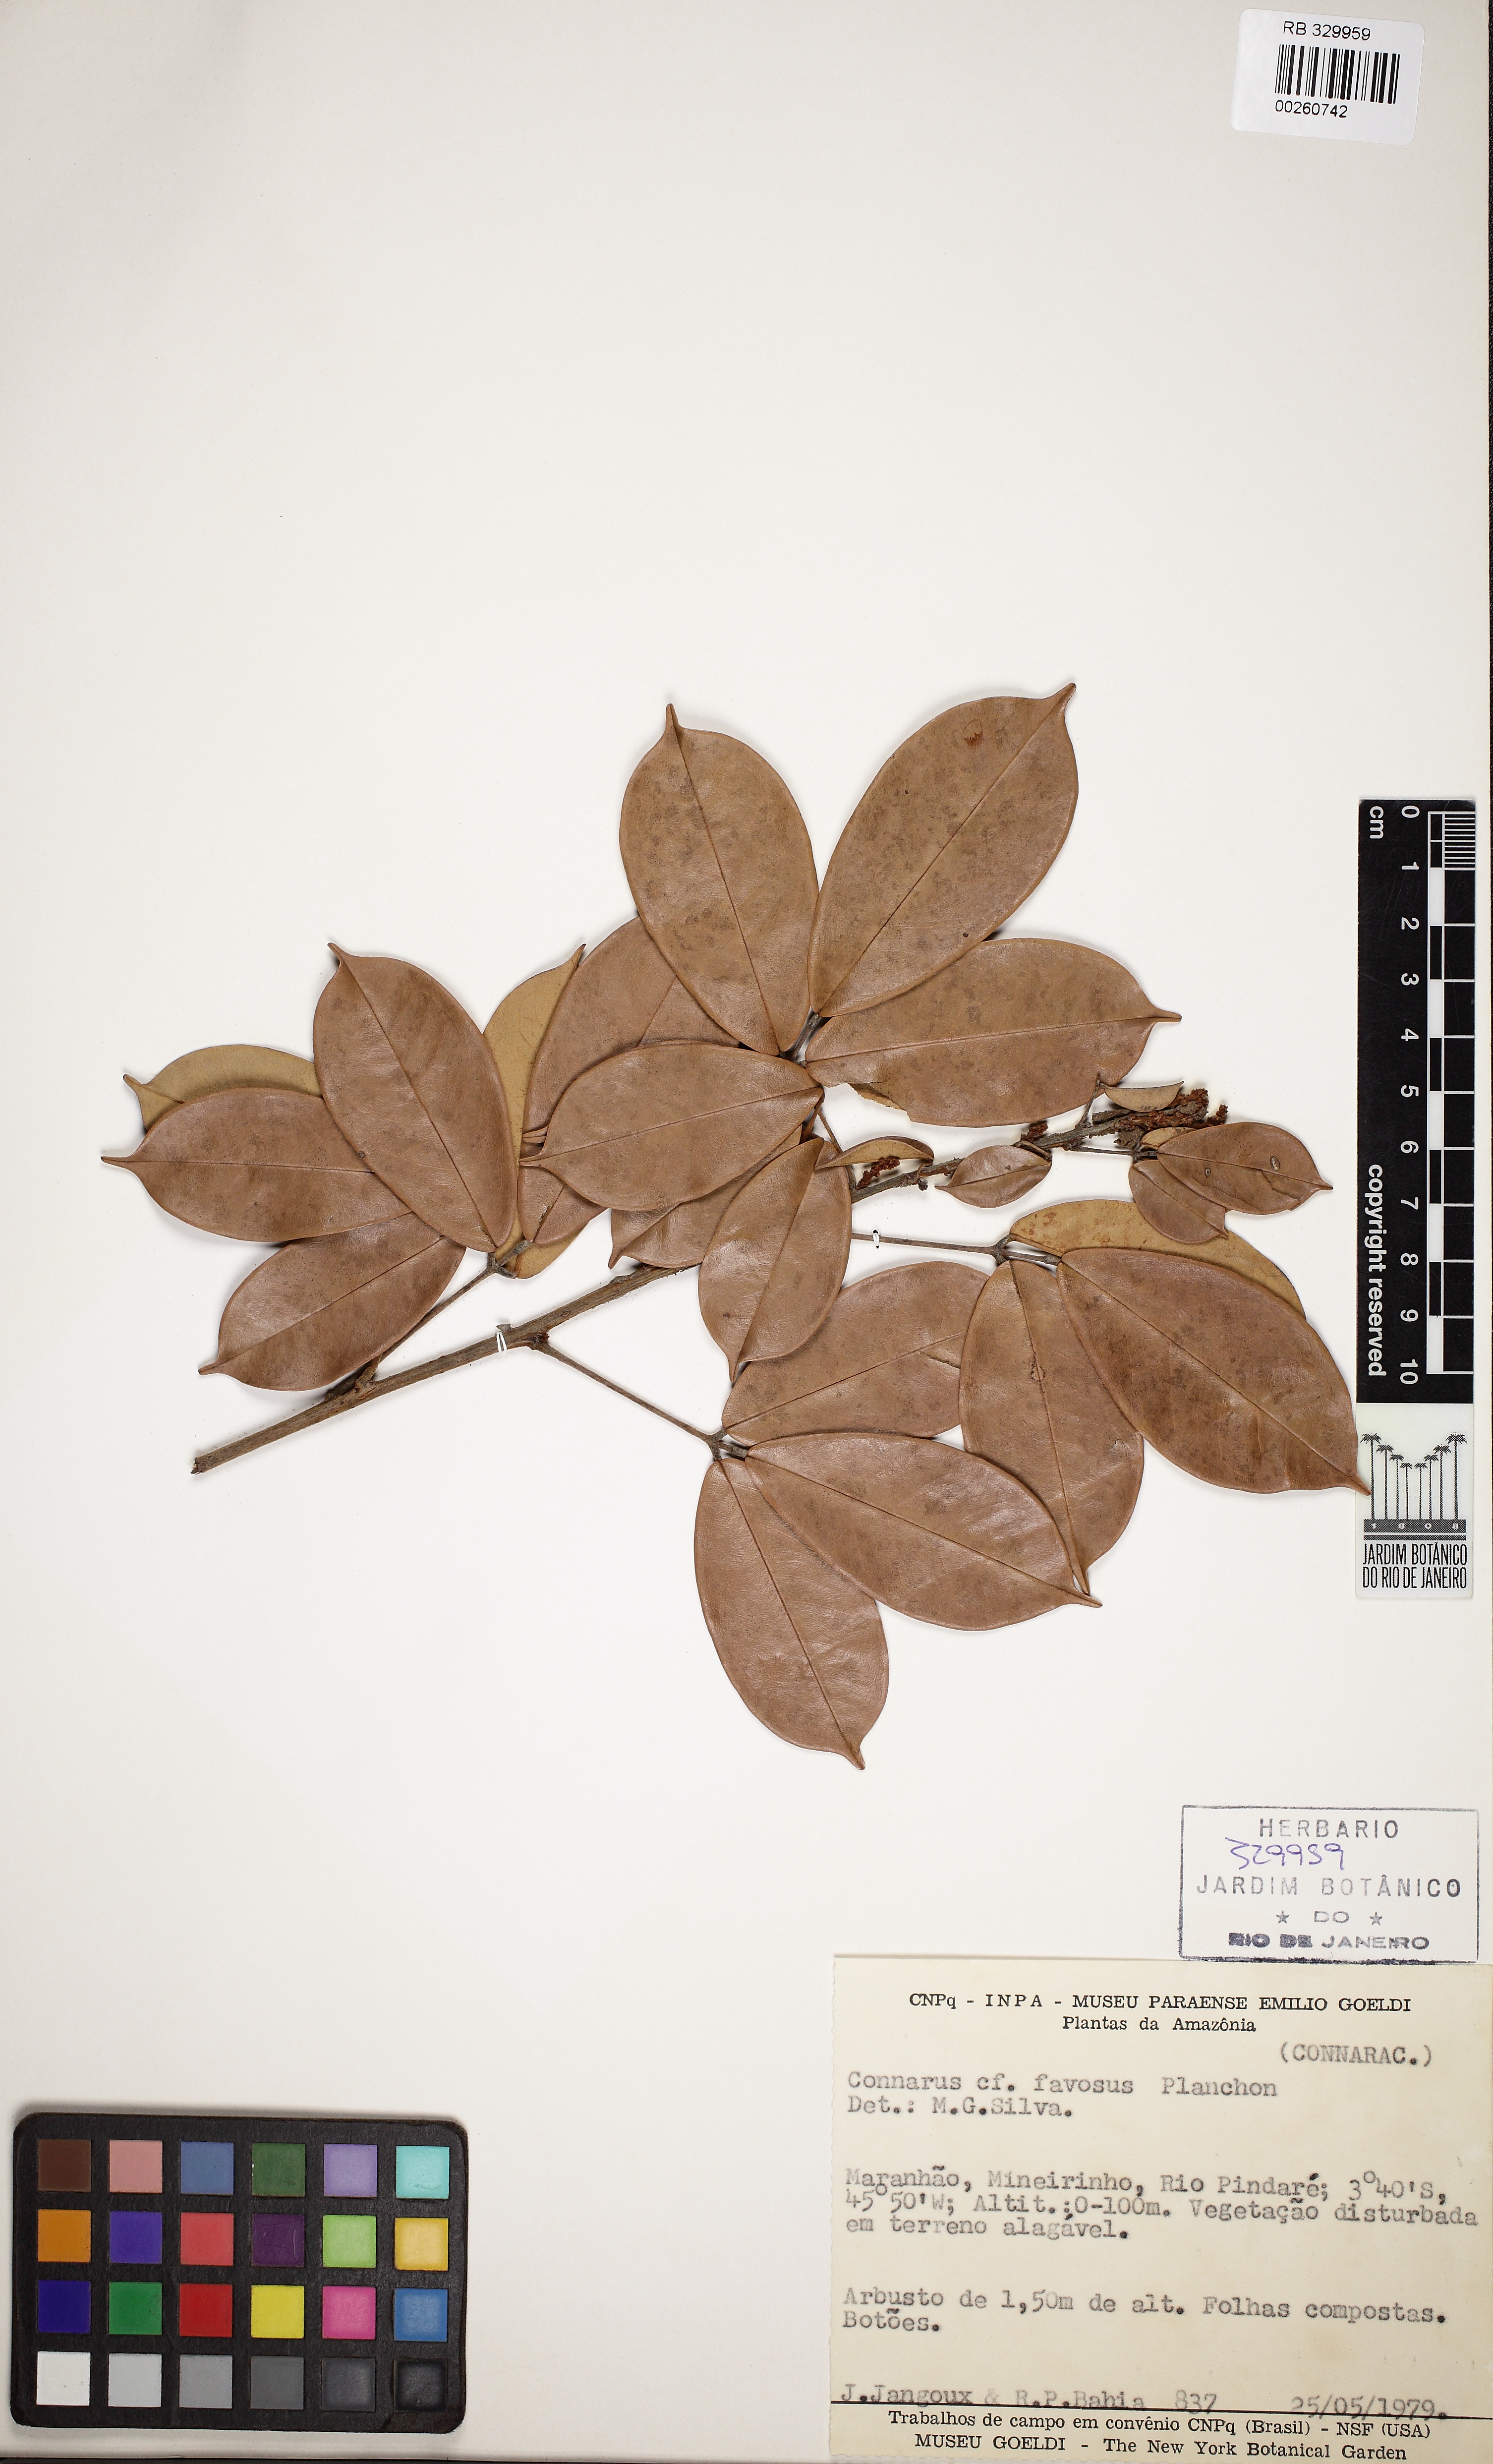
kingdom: Plantae
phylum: Tracheophyta
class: Magnoliopsida
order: Oxalidales
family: Connaraceae
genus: Connarus
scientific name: Connarus favosus
